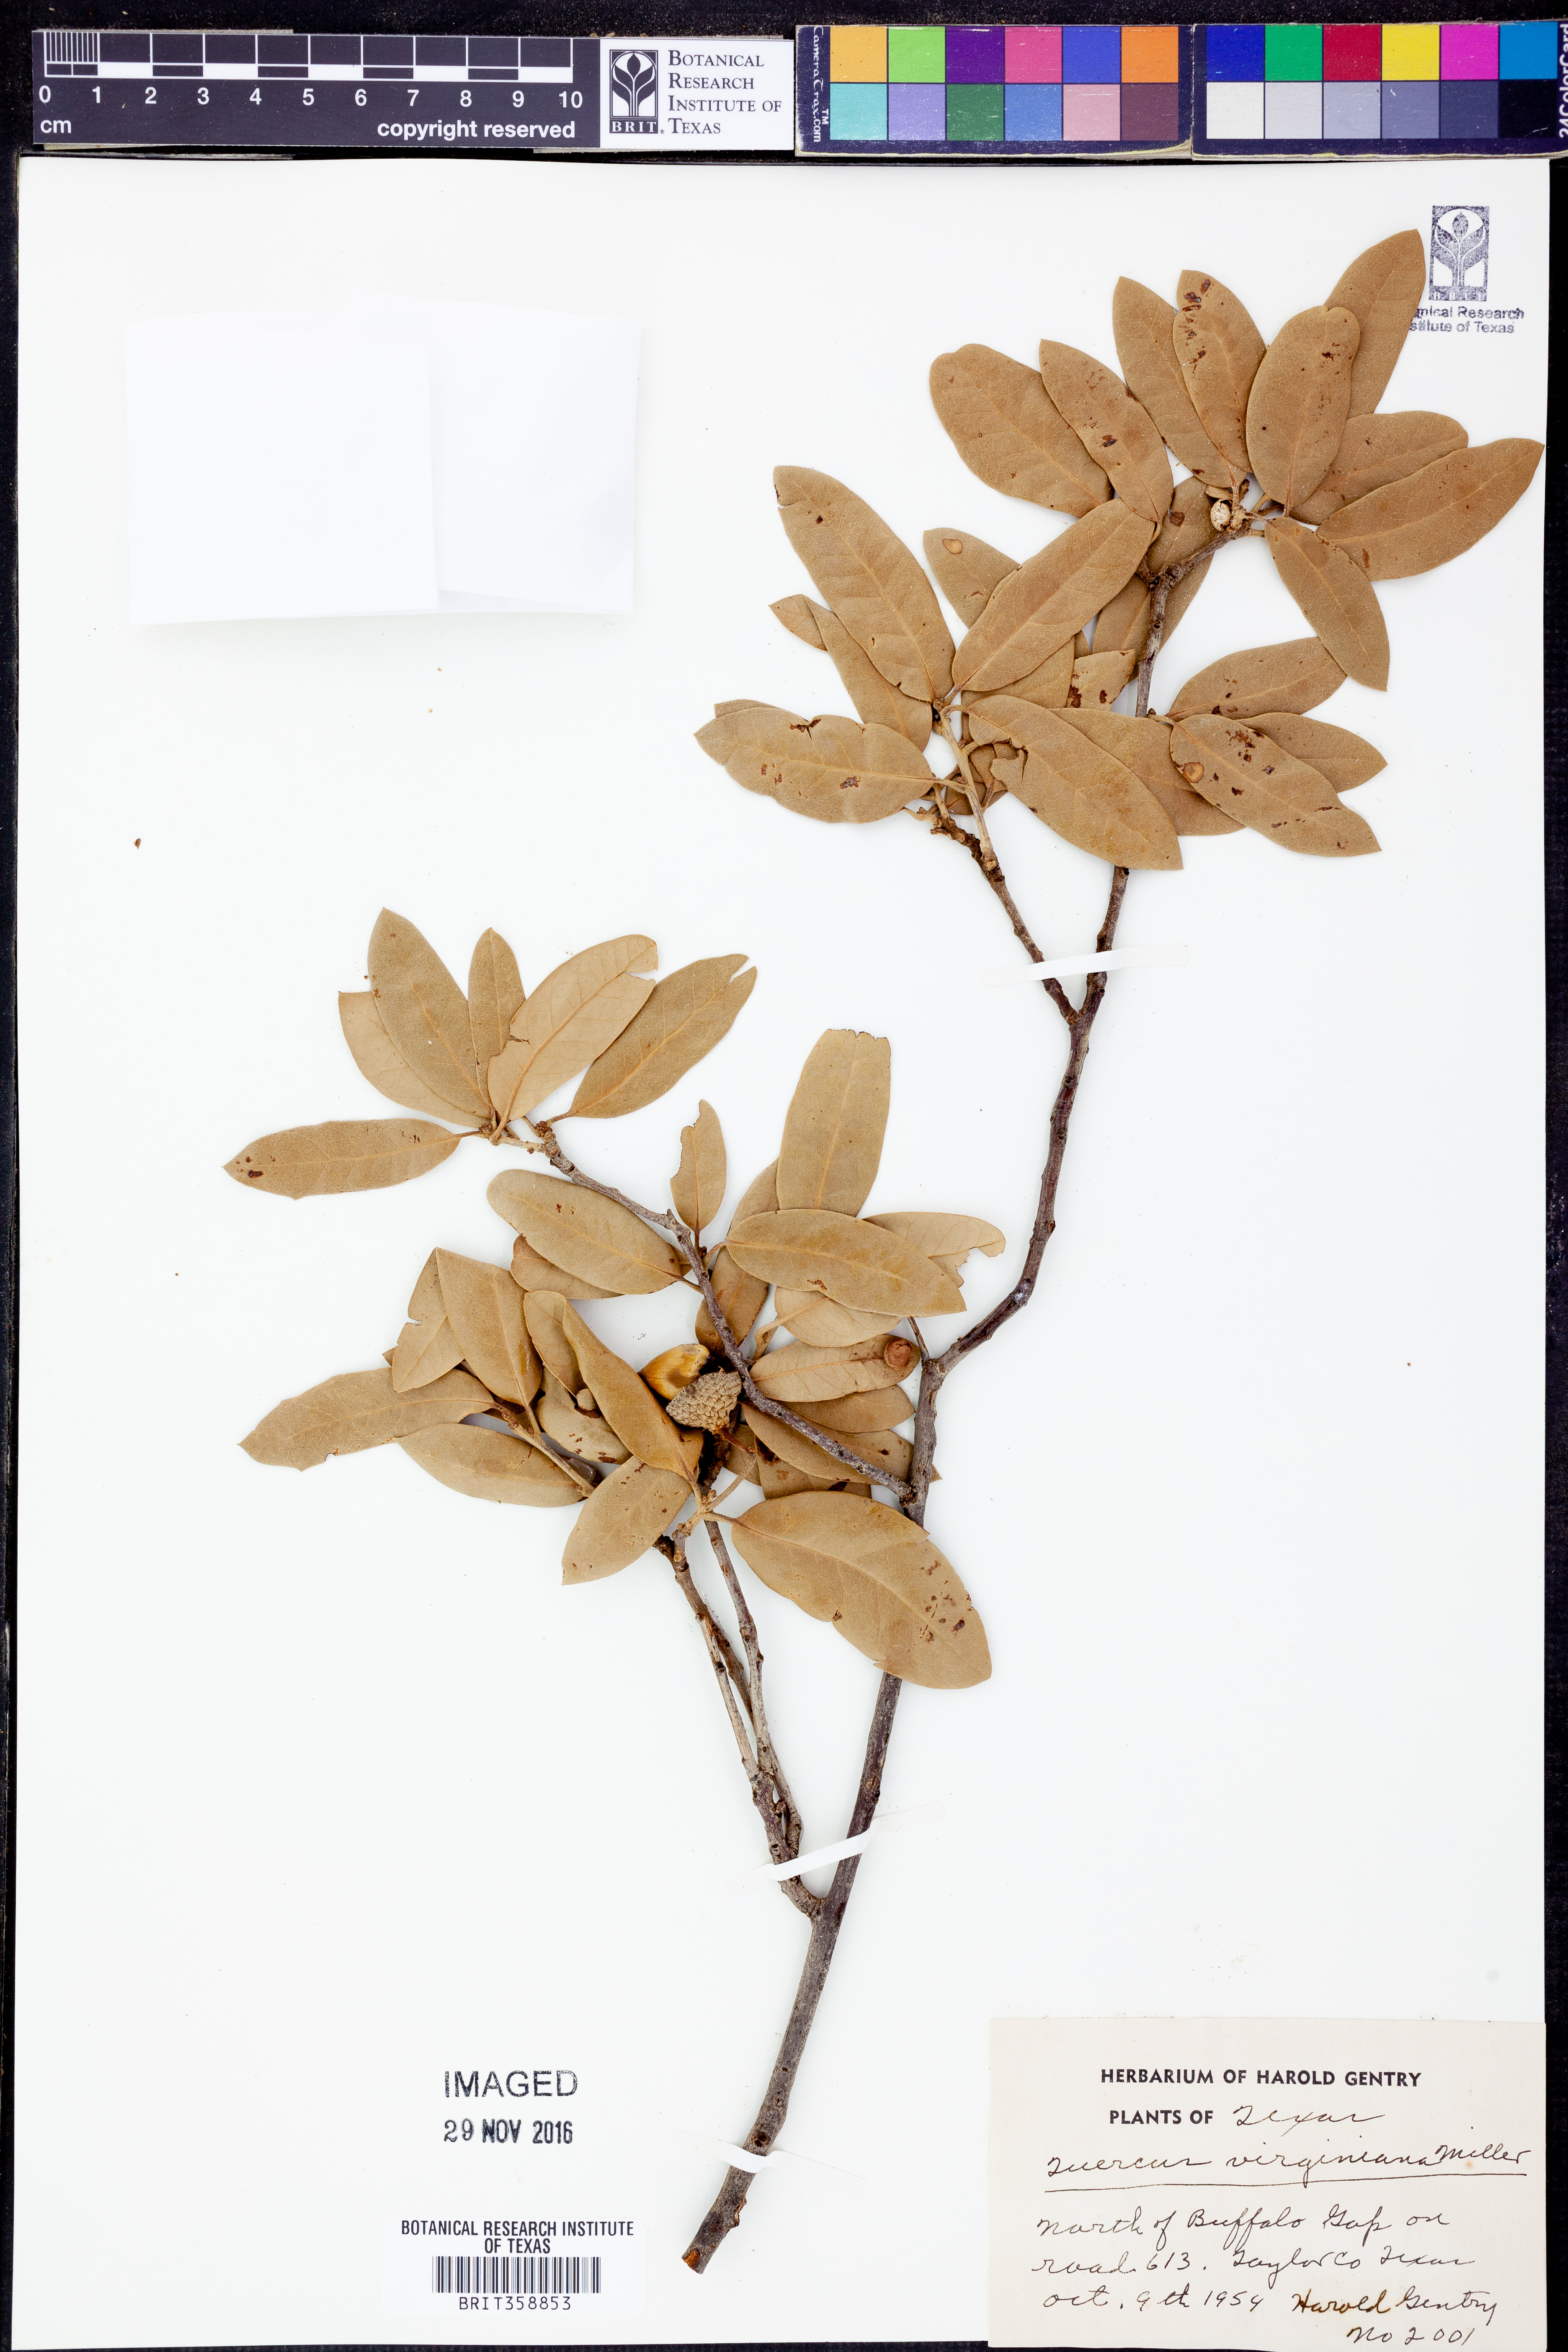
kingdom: Plantae
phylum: Tracheophyta
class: Magnoliopsida
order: Fagales
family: Fagaceae
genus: Quercus
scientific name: Quercus virginiana
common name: Southern live oak
